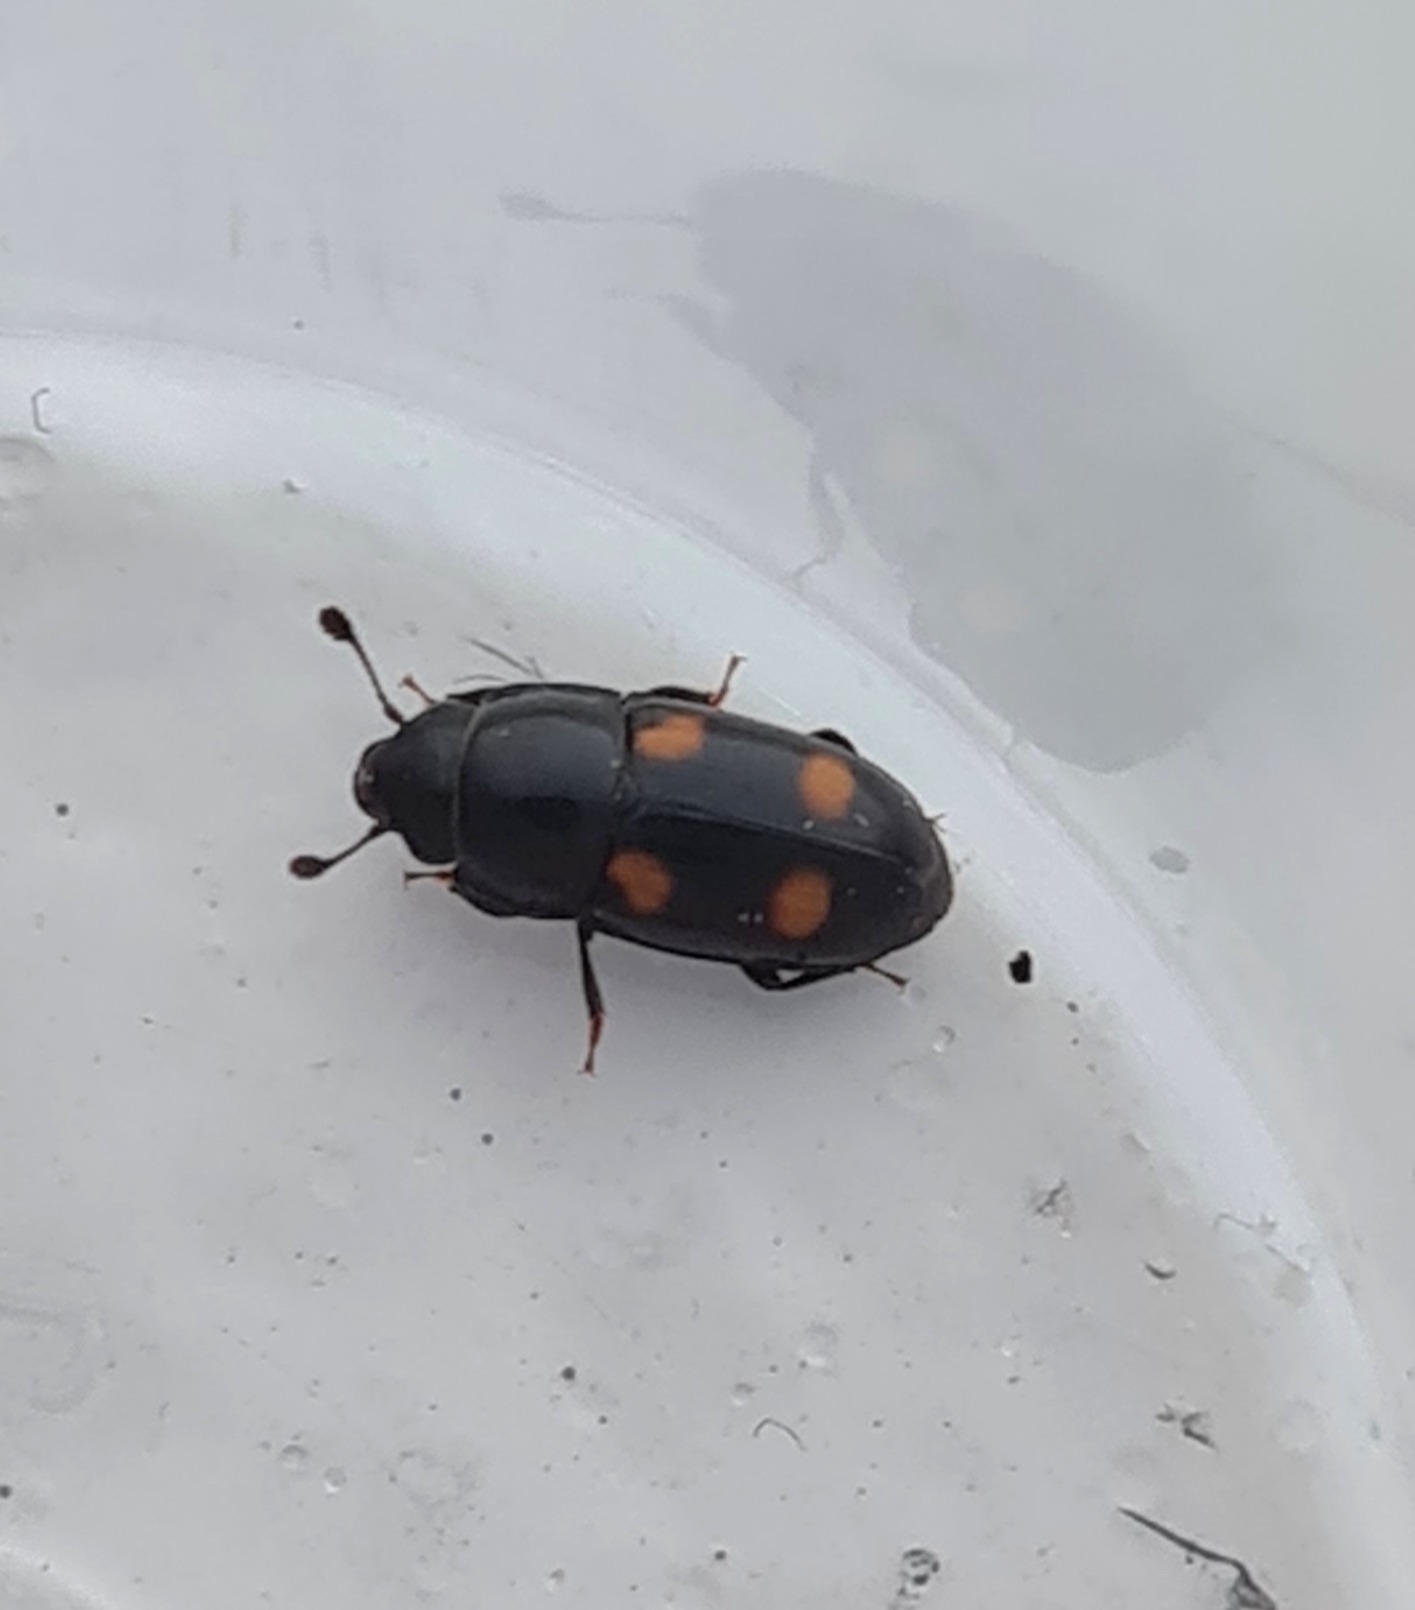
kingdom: Animalia
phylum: Arthropoda
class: Insecta
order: Coleoptera
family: Nitidulidae
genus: Glischrochilus
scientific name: Glischrochilus hortensis
